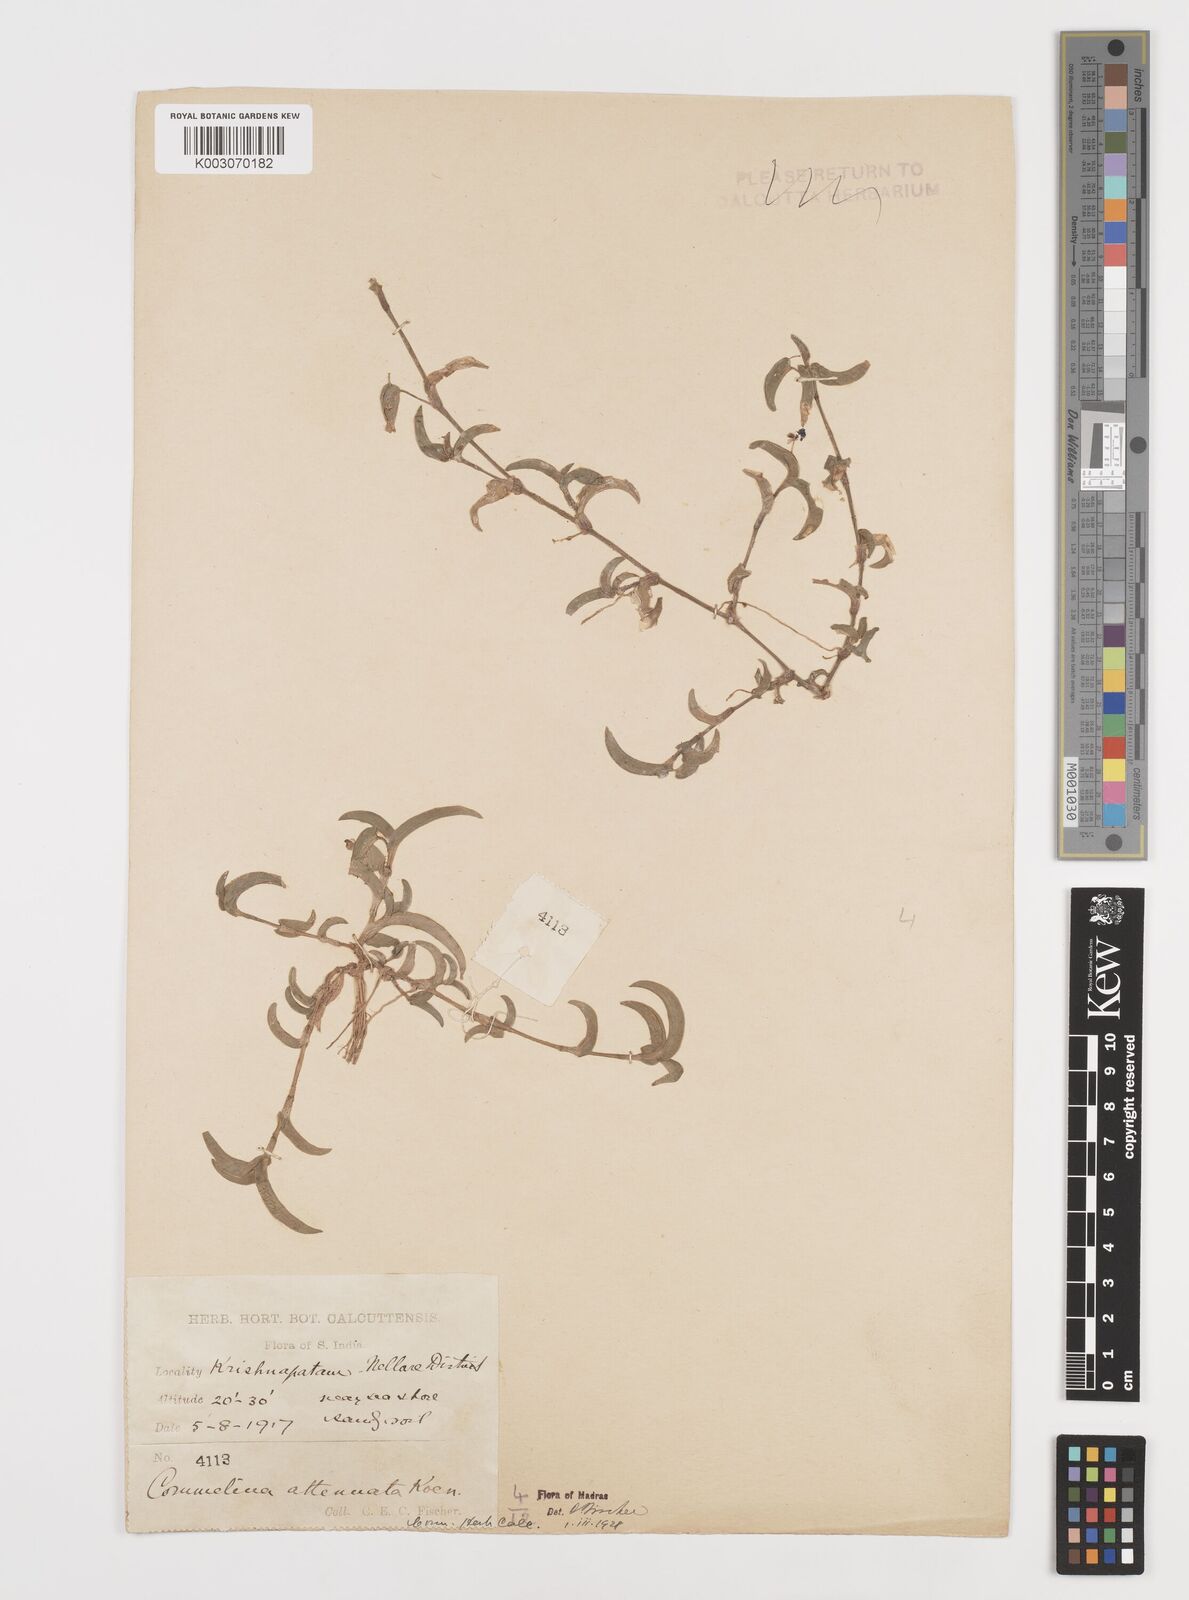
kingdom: Plantae
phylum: Tracheophyta
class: Liliopsida
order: Commelinales
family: Commelinaceae
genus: Commelina
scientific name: Commelina attenuata
